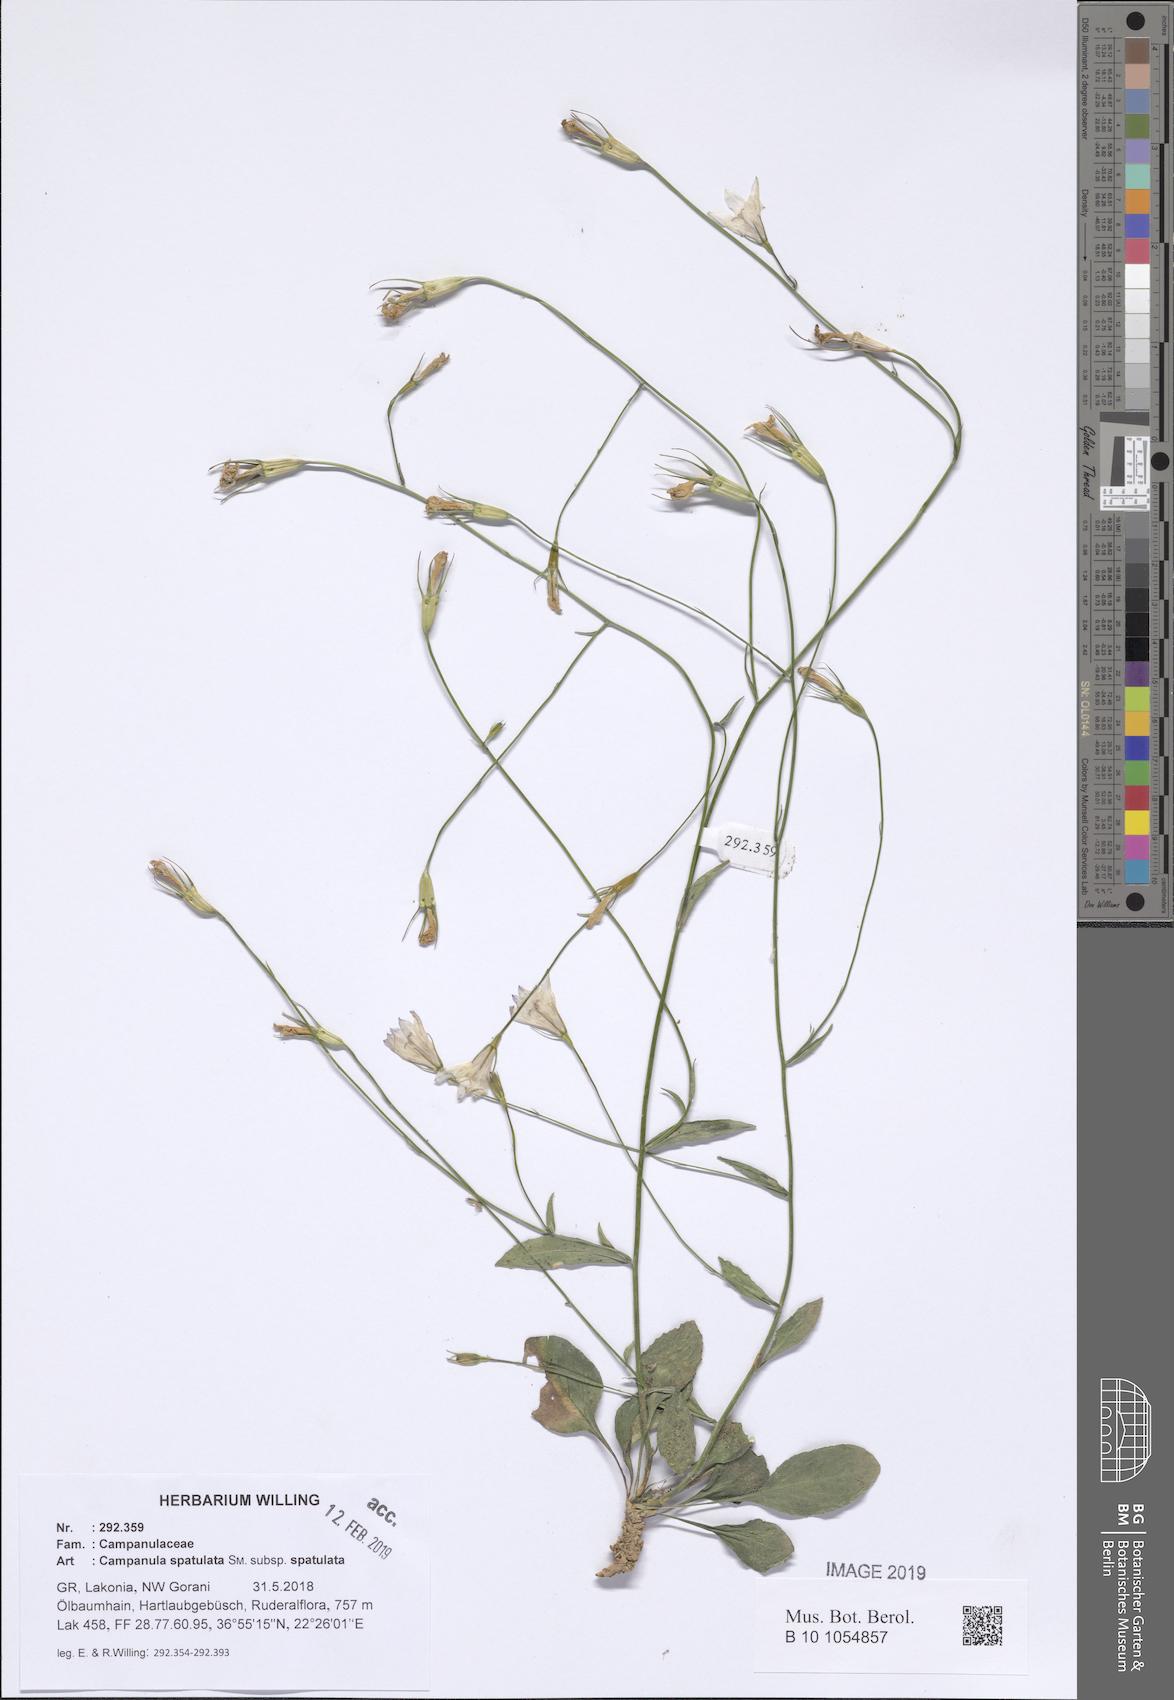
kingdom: Plantae
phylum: Tracheophyta
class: Magnoliopsida
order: Asterales
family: Campanulaceae
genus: Campanula
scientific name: Campanula spatulata
